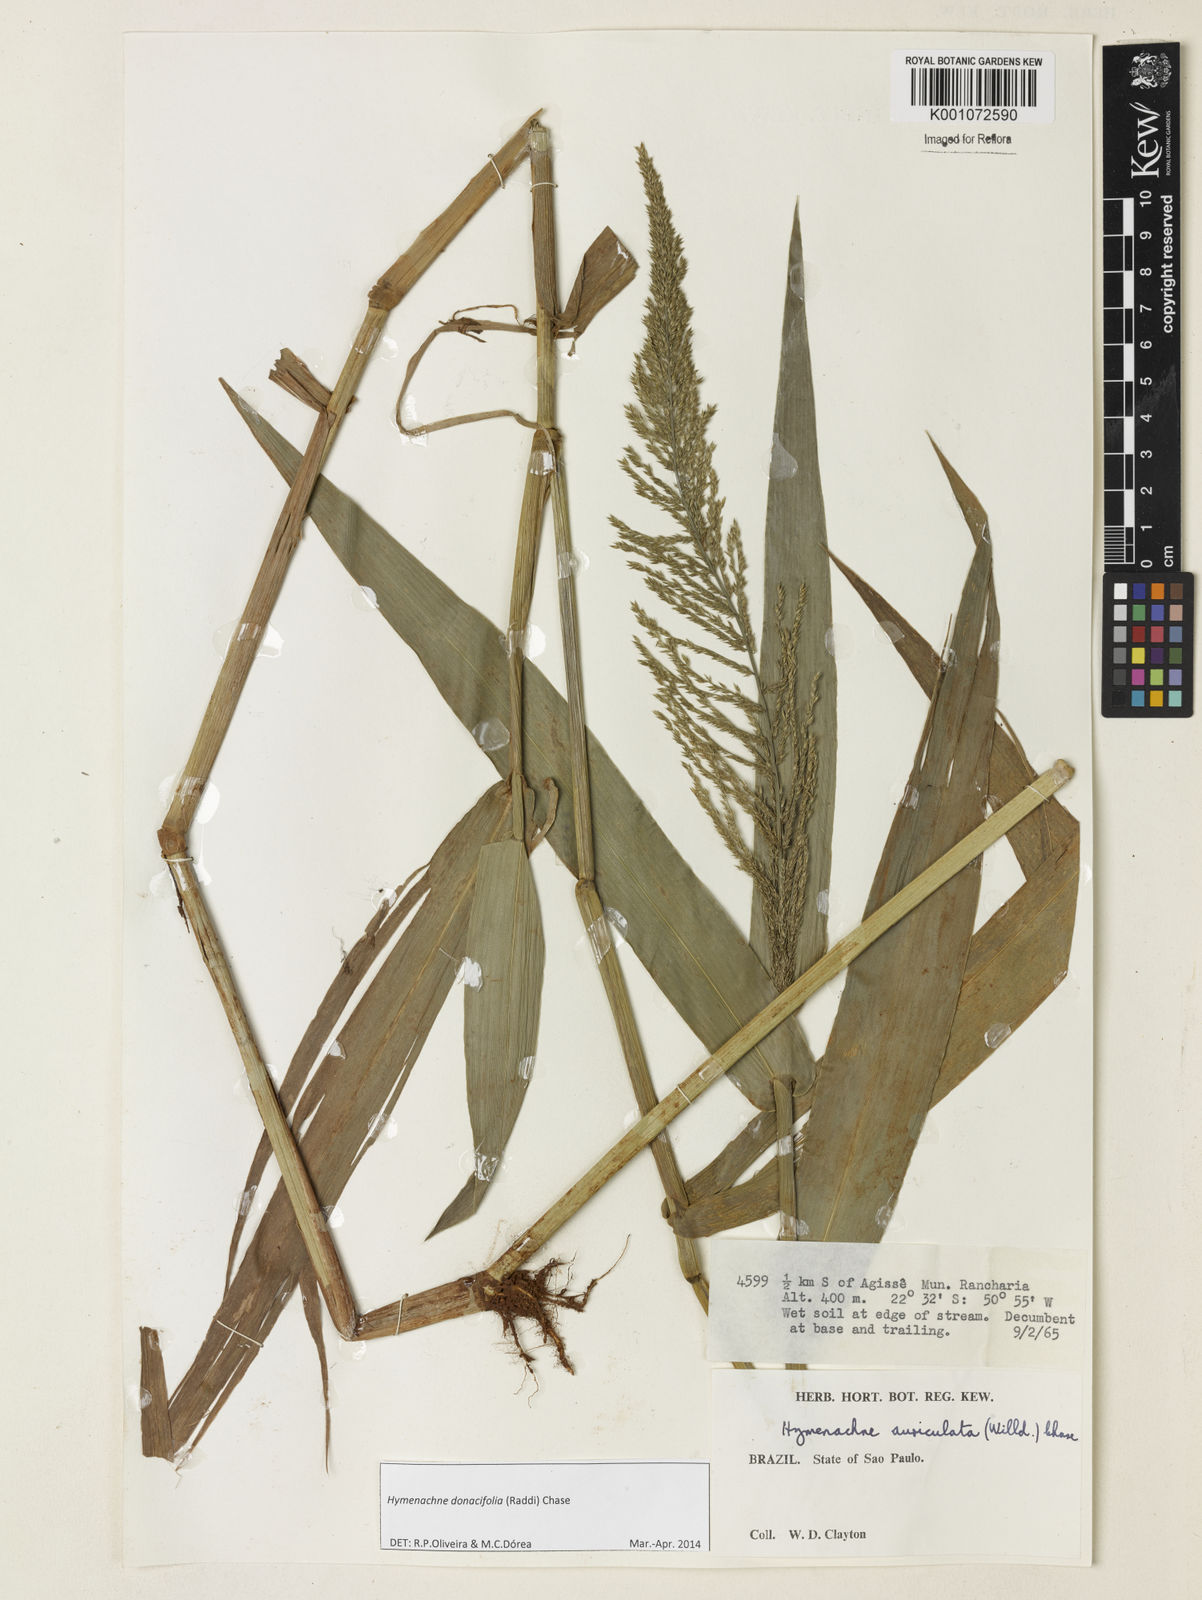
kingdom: Plantae
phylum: Tracheophyta
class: Liliopsida
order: Poales
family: Poaceae
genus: Hymenachne
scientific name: Hymenachne donacifolia
